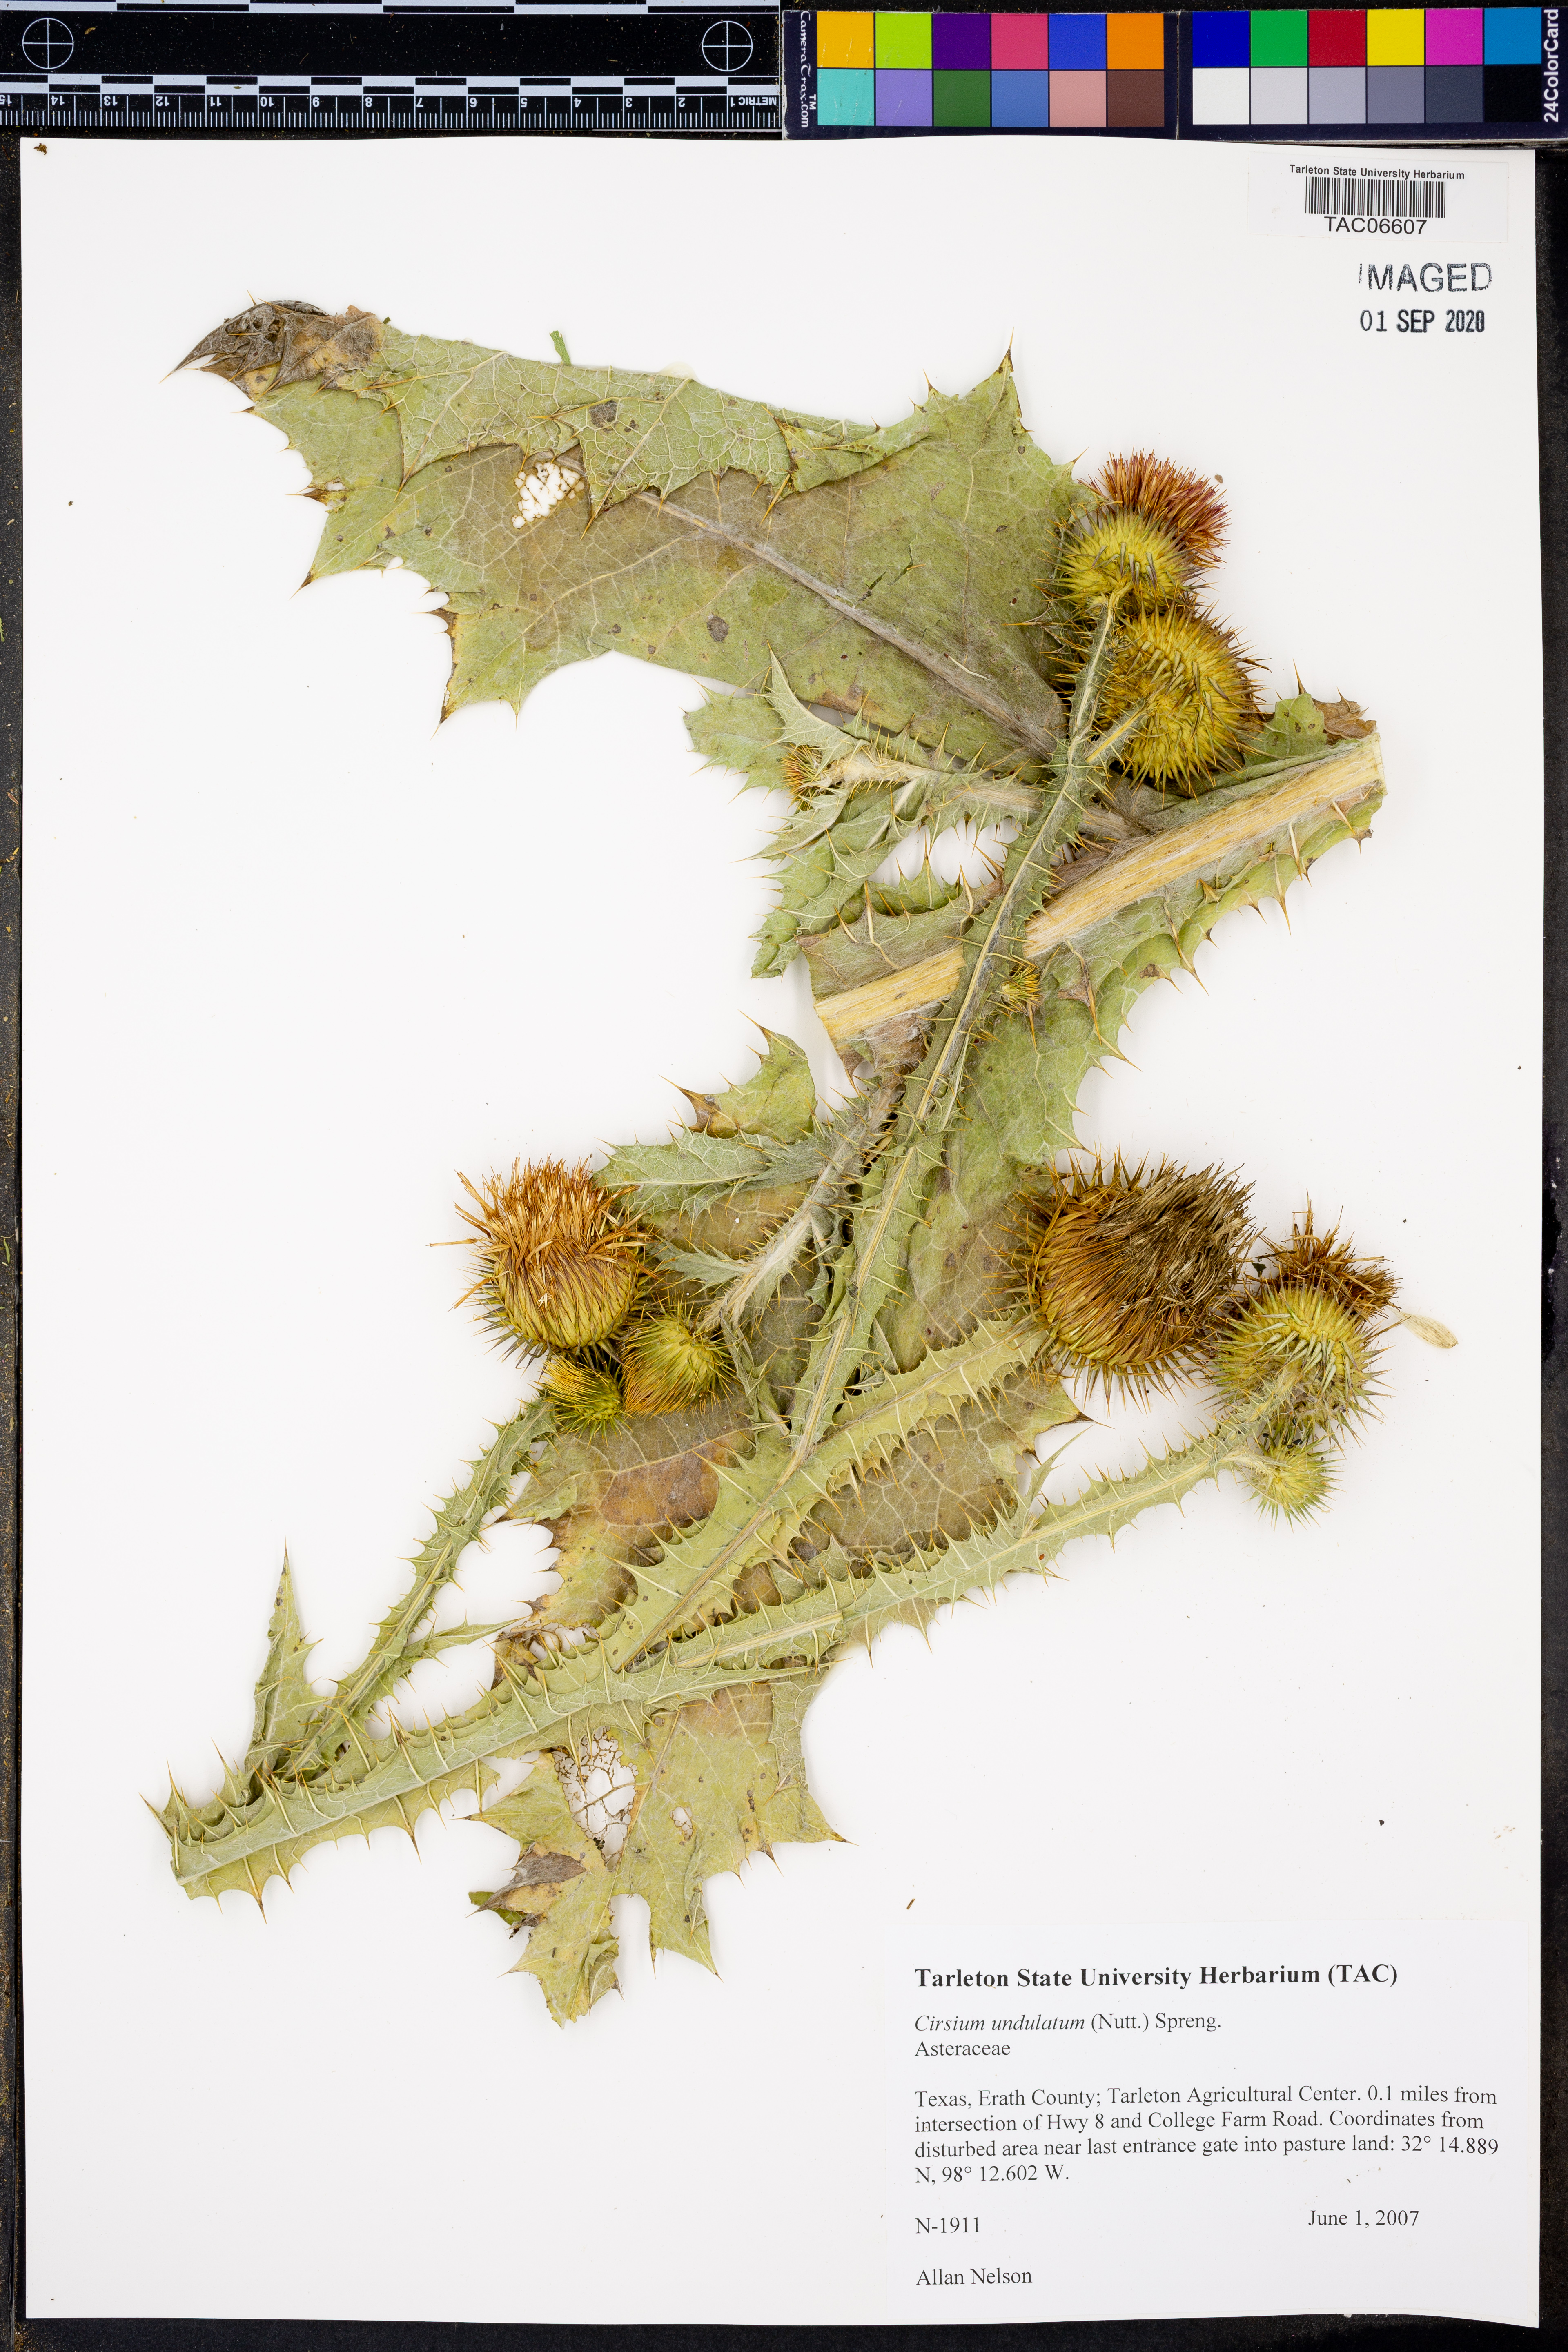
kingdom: Plantae
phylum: Tracheophyta
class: Magnoliopsida
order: Asterales
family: Asteraceae
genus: Cirsium
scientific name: Cirsium undulatum
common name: Pasture thistle
